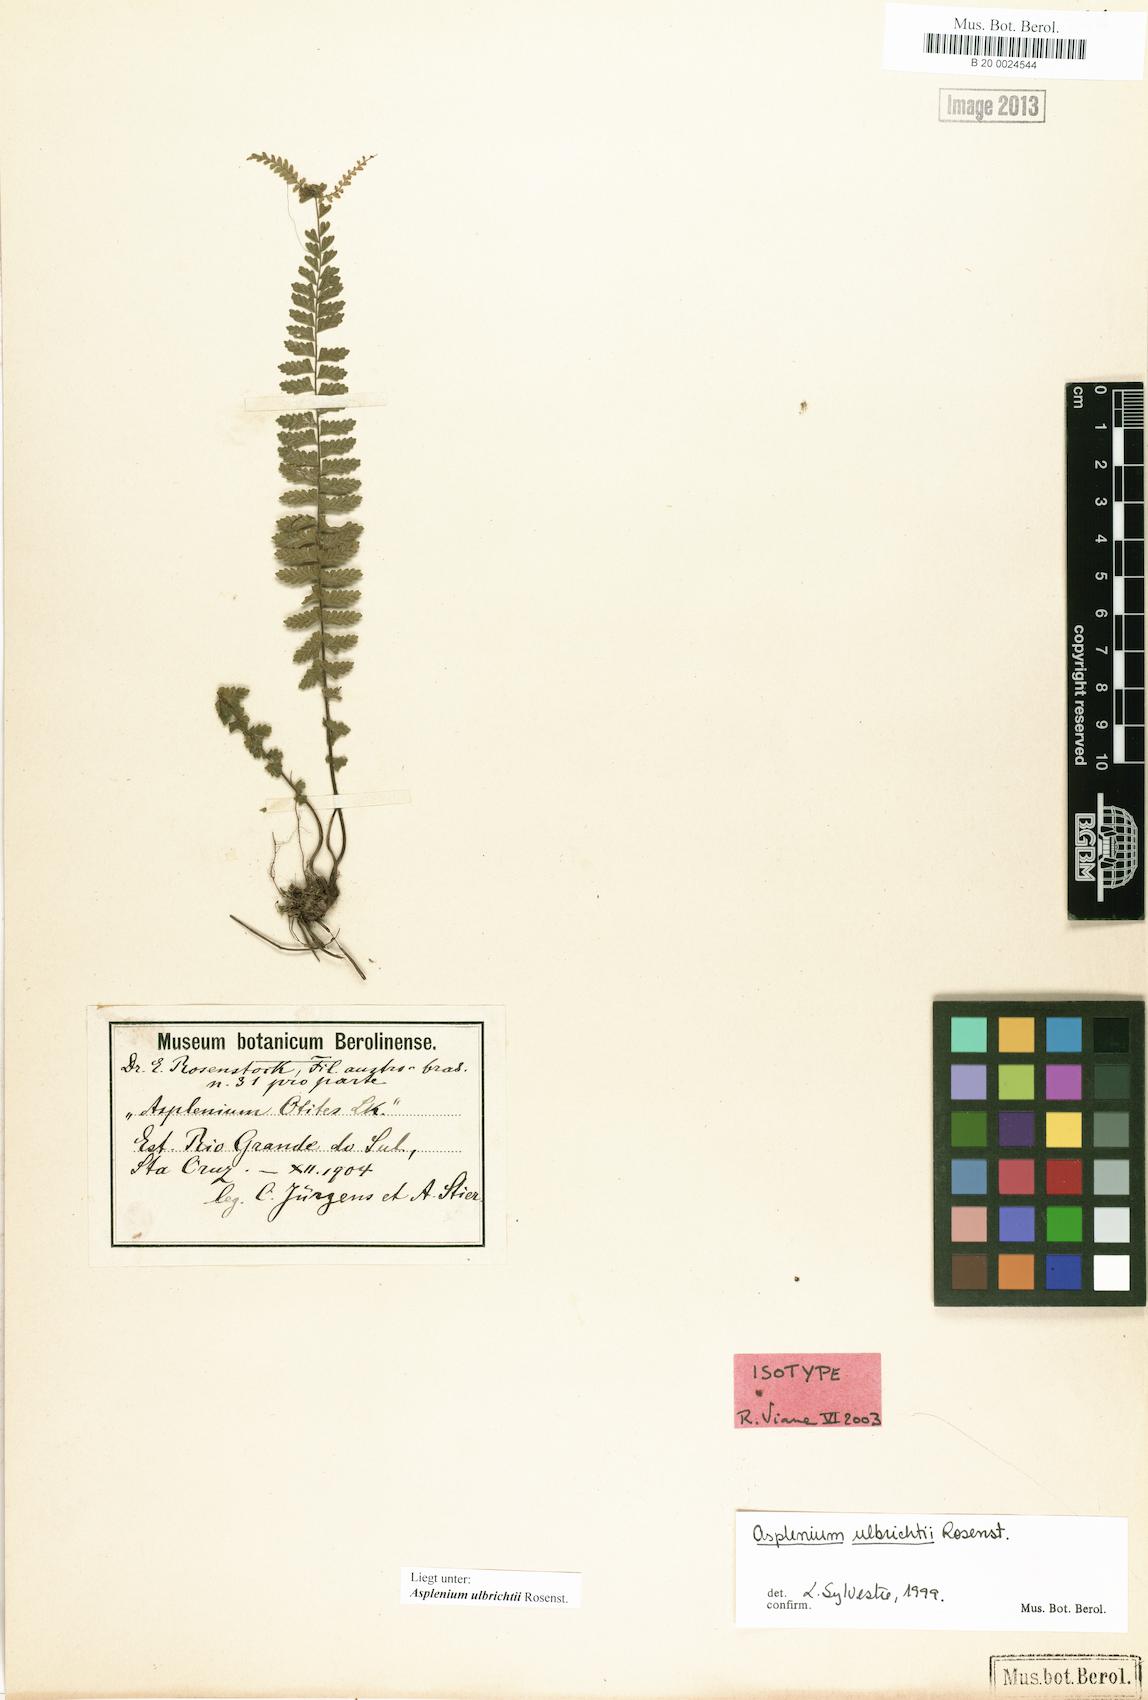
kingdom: Plantae
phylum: Tracheophyta
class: Polypodiopsida
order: Polypodiales
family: Aspleniaceae
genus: Asplenium
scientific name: Asplenium ulbrichtii
